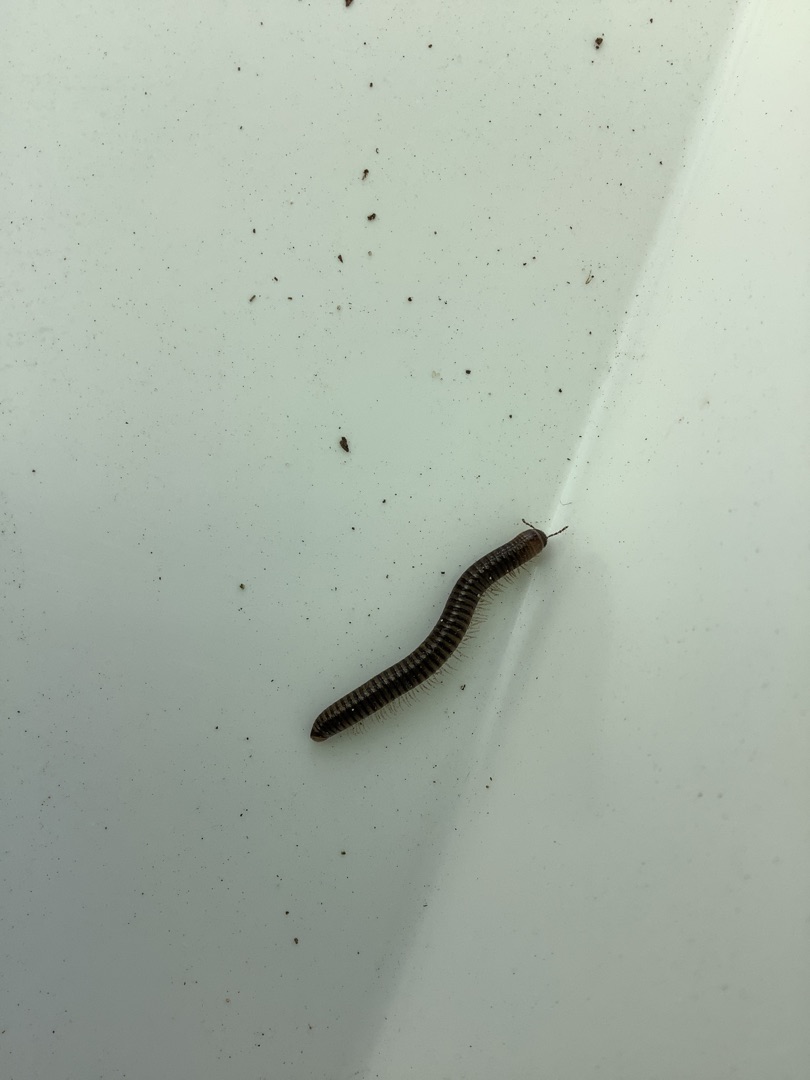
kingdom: Animalia
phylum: Arthropoda
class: Diplopoda
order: Julida
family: Julidae
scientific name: Julidae
